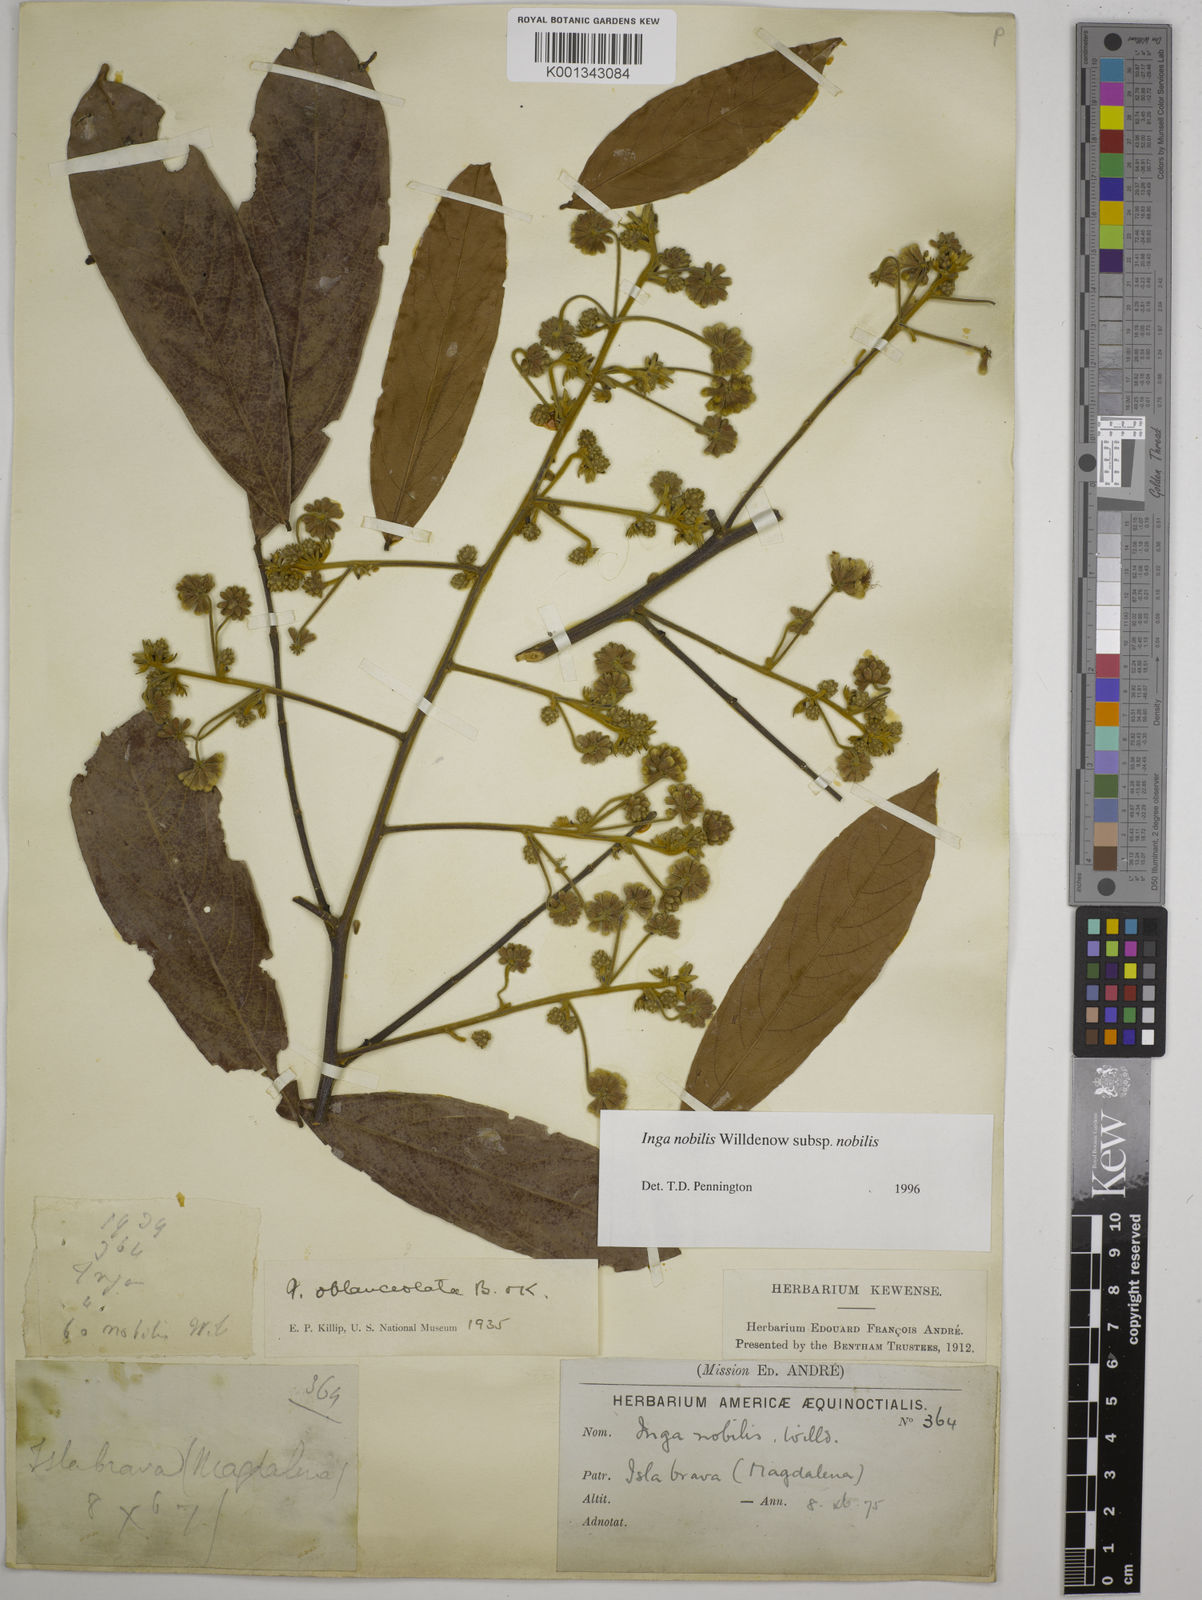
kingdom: Plantae
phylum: Tracheophyta
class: Magnoliopsida
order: Fabales
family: Fabaceae
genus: Inga
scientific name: Inga nobilis
